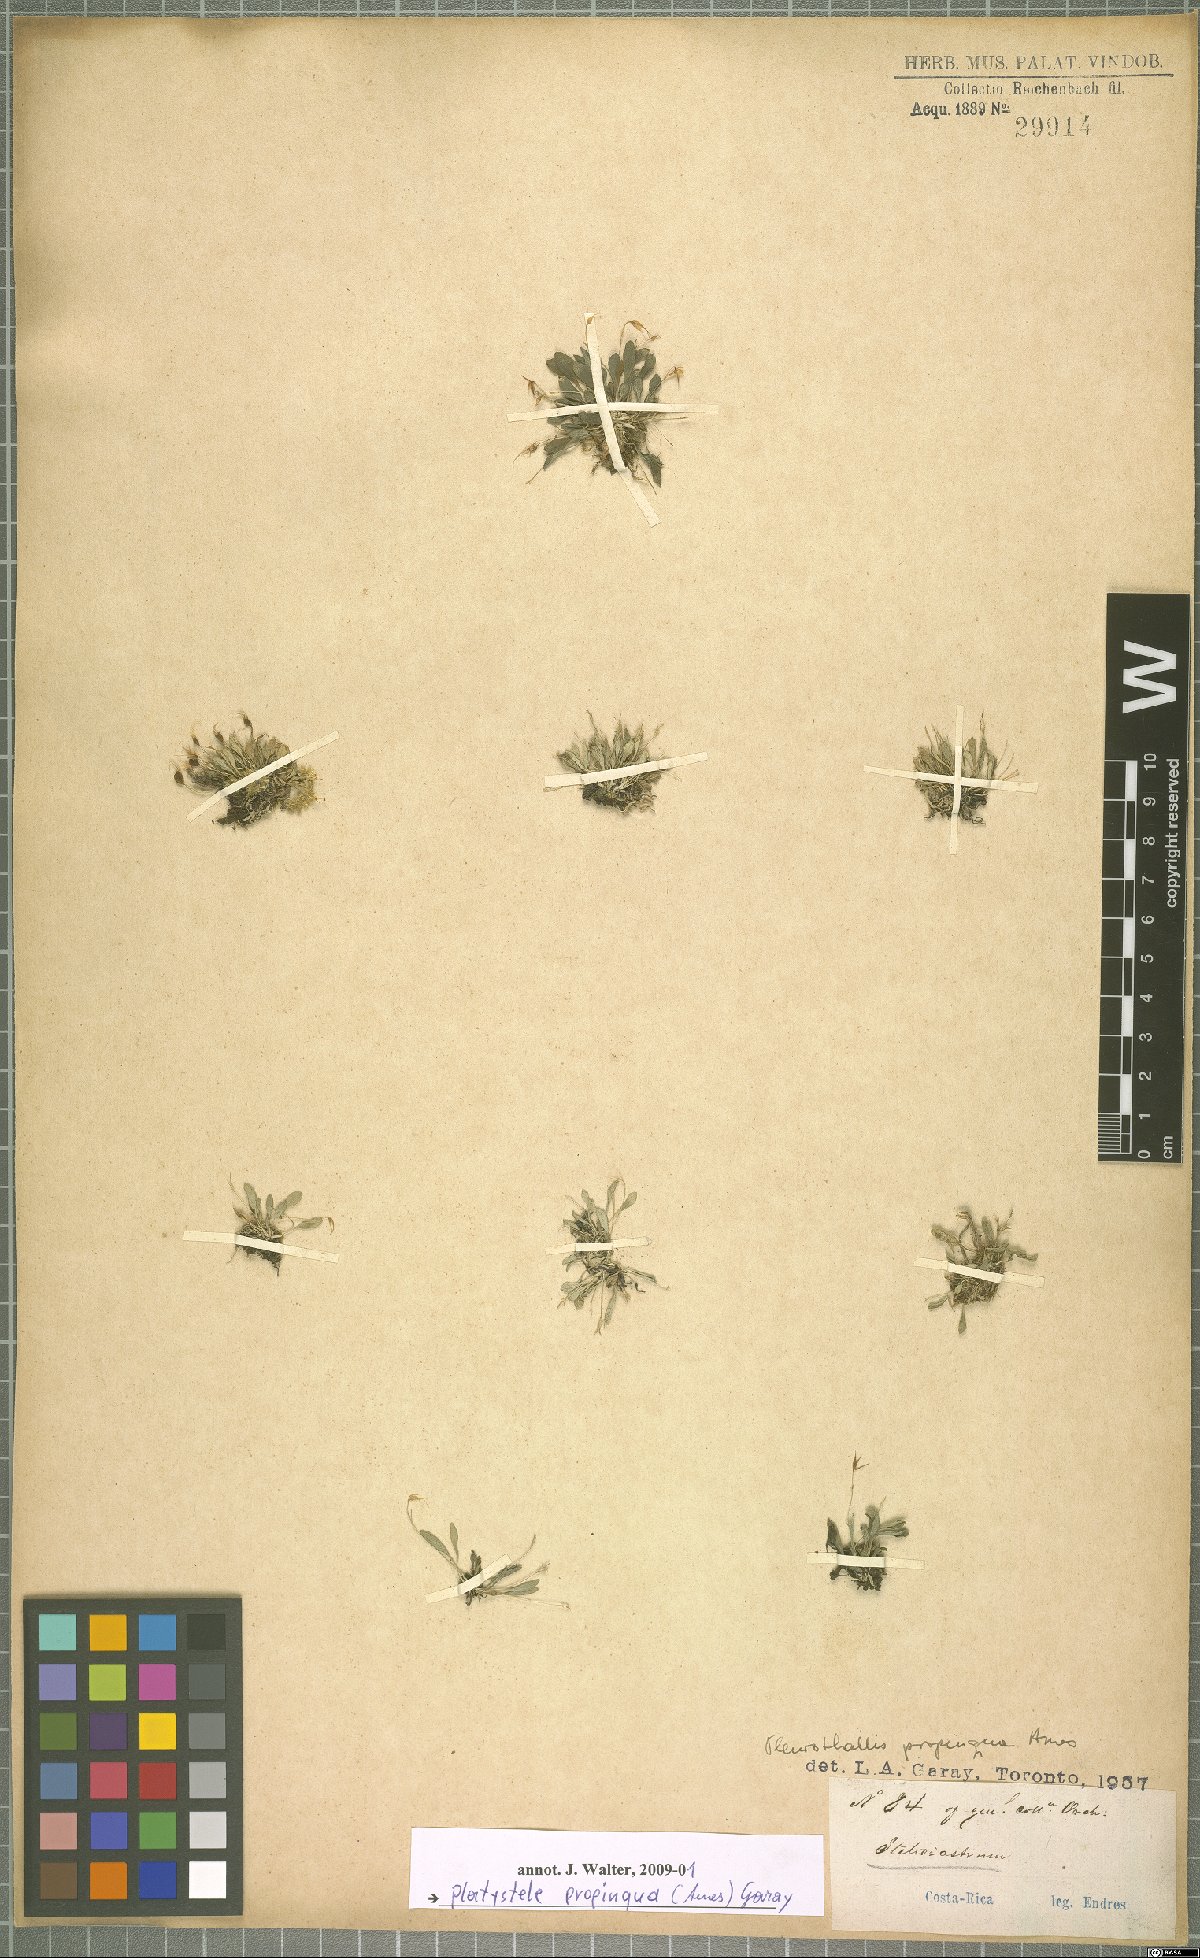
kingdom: Plantae
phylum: Tracheophyta
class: Liliopsida
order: Asparagales
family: Orchidaceae
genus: Platystele
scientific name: Platystele propinqua
